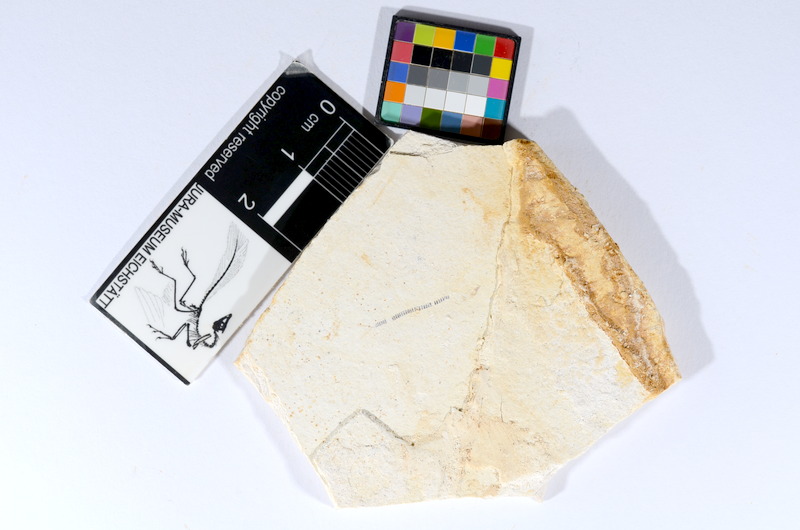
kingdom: Animalia
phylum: Chordata
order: Salmoniformes
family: Orthogonikleithridae
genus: Orthogonikleithrus
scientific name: Orthogonikleithrus hoelli
